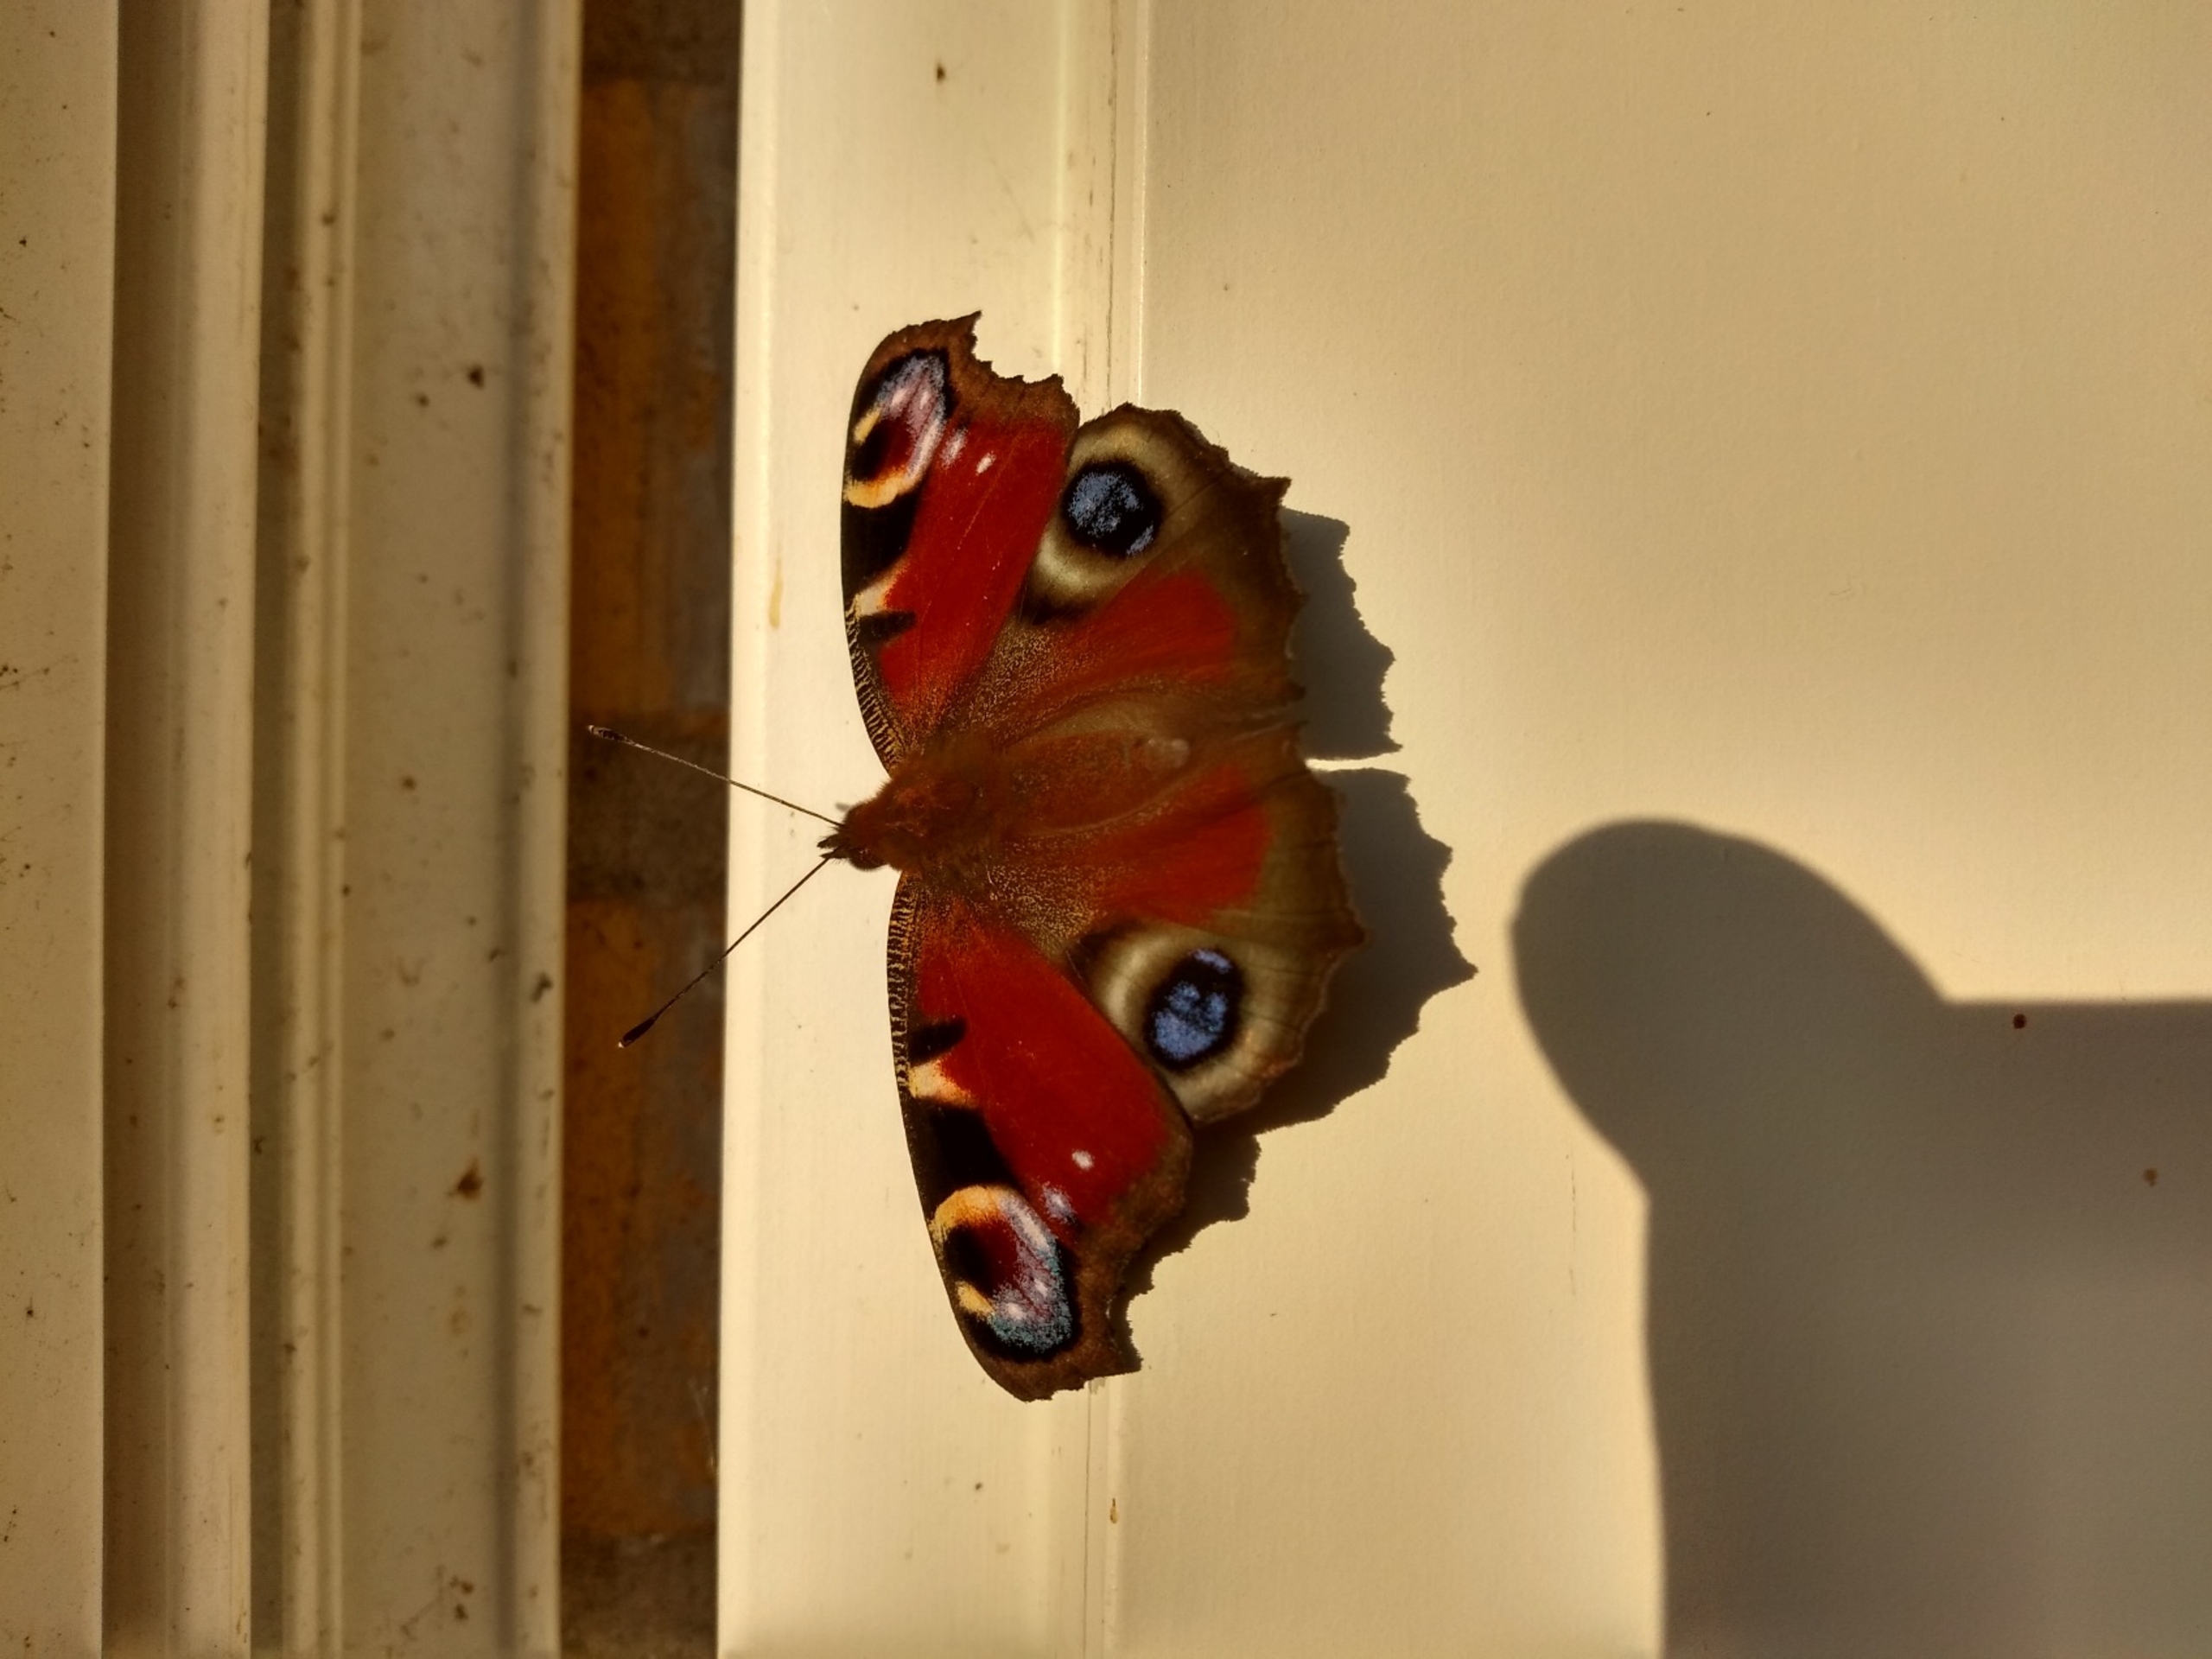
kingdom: Animalia
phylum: Arthropoda
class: Insecta
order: Lepidoptera
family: Nymphalidae
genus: Aglais
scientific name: Aglais io
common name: Dagpåfugleøje
